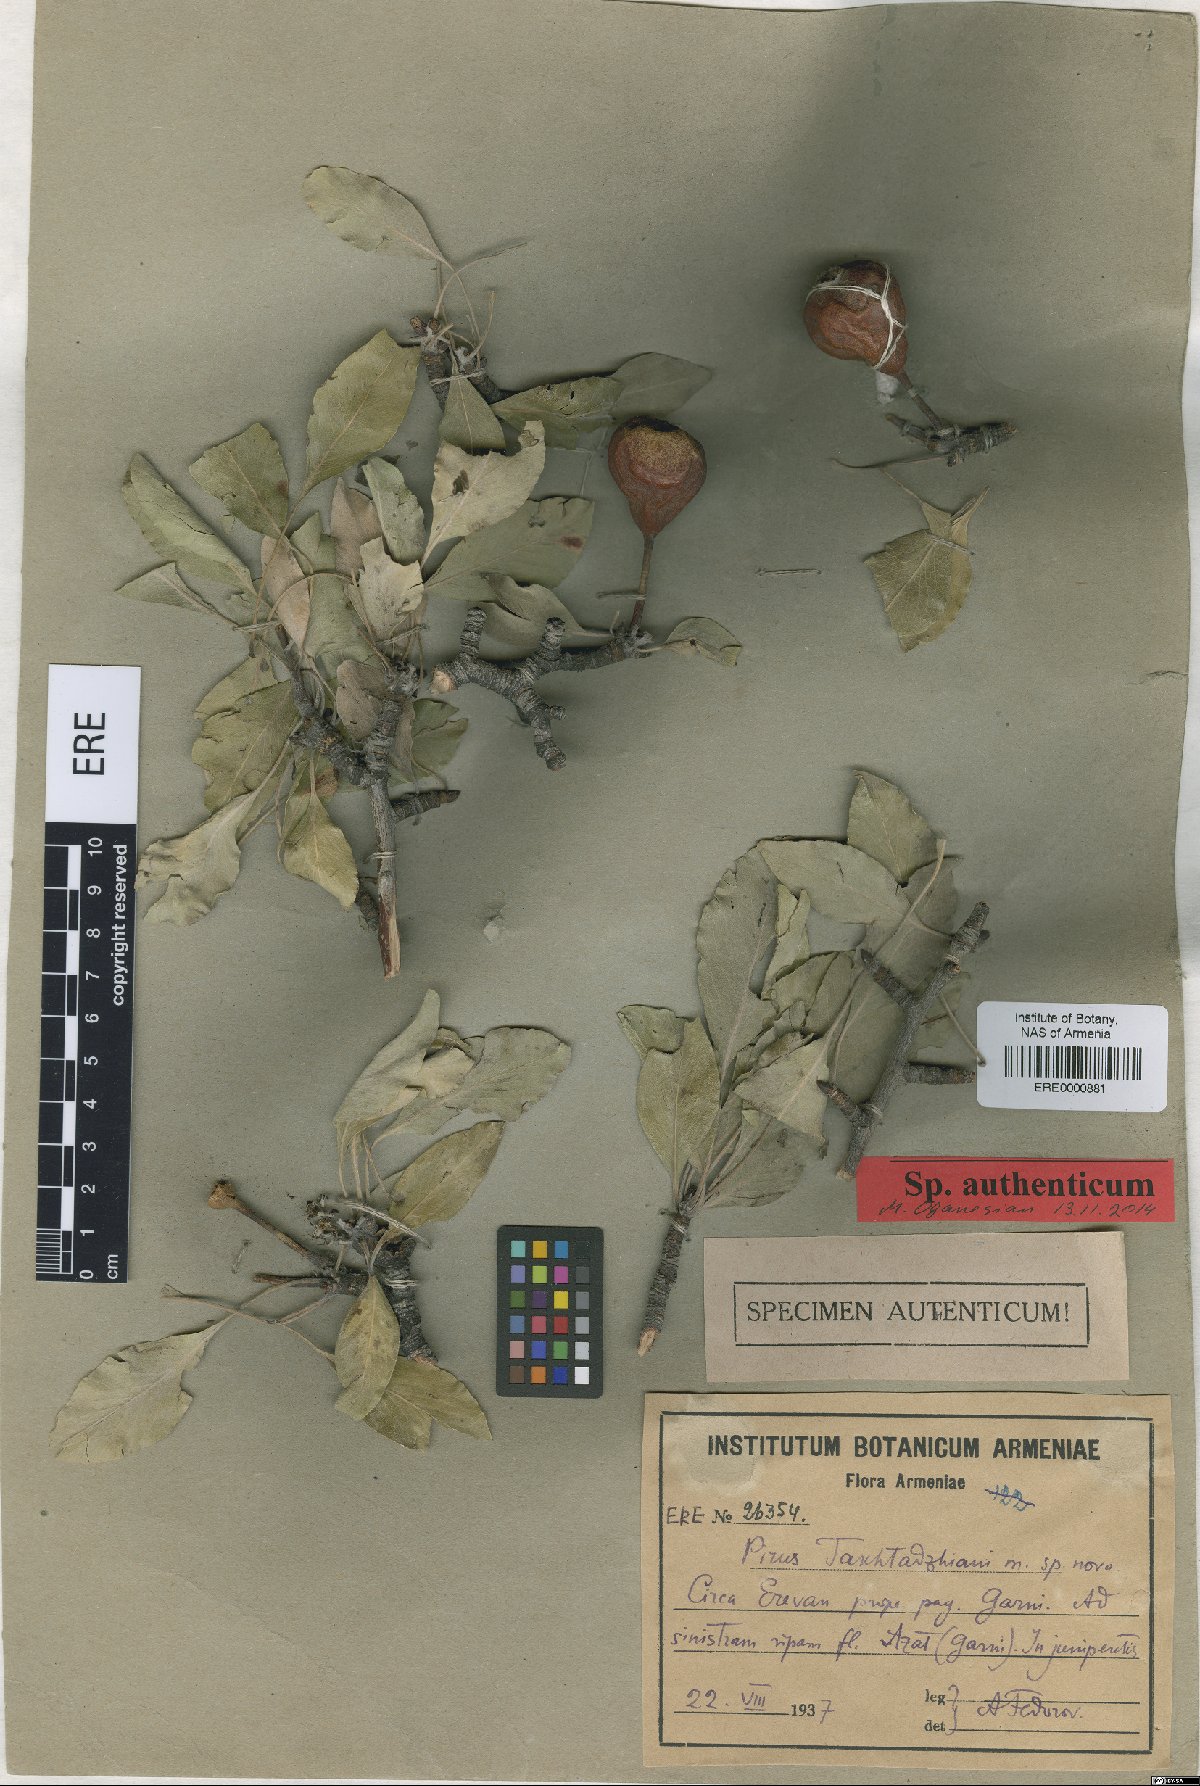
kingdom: Plantae
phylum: Tracheophyta
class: Magnoliopsida
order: Rosales
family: Rosaceae
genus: Pyrus
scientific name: Pyrus takhtadzhianii
